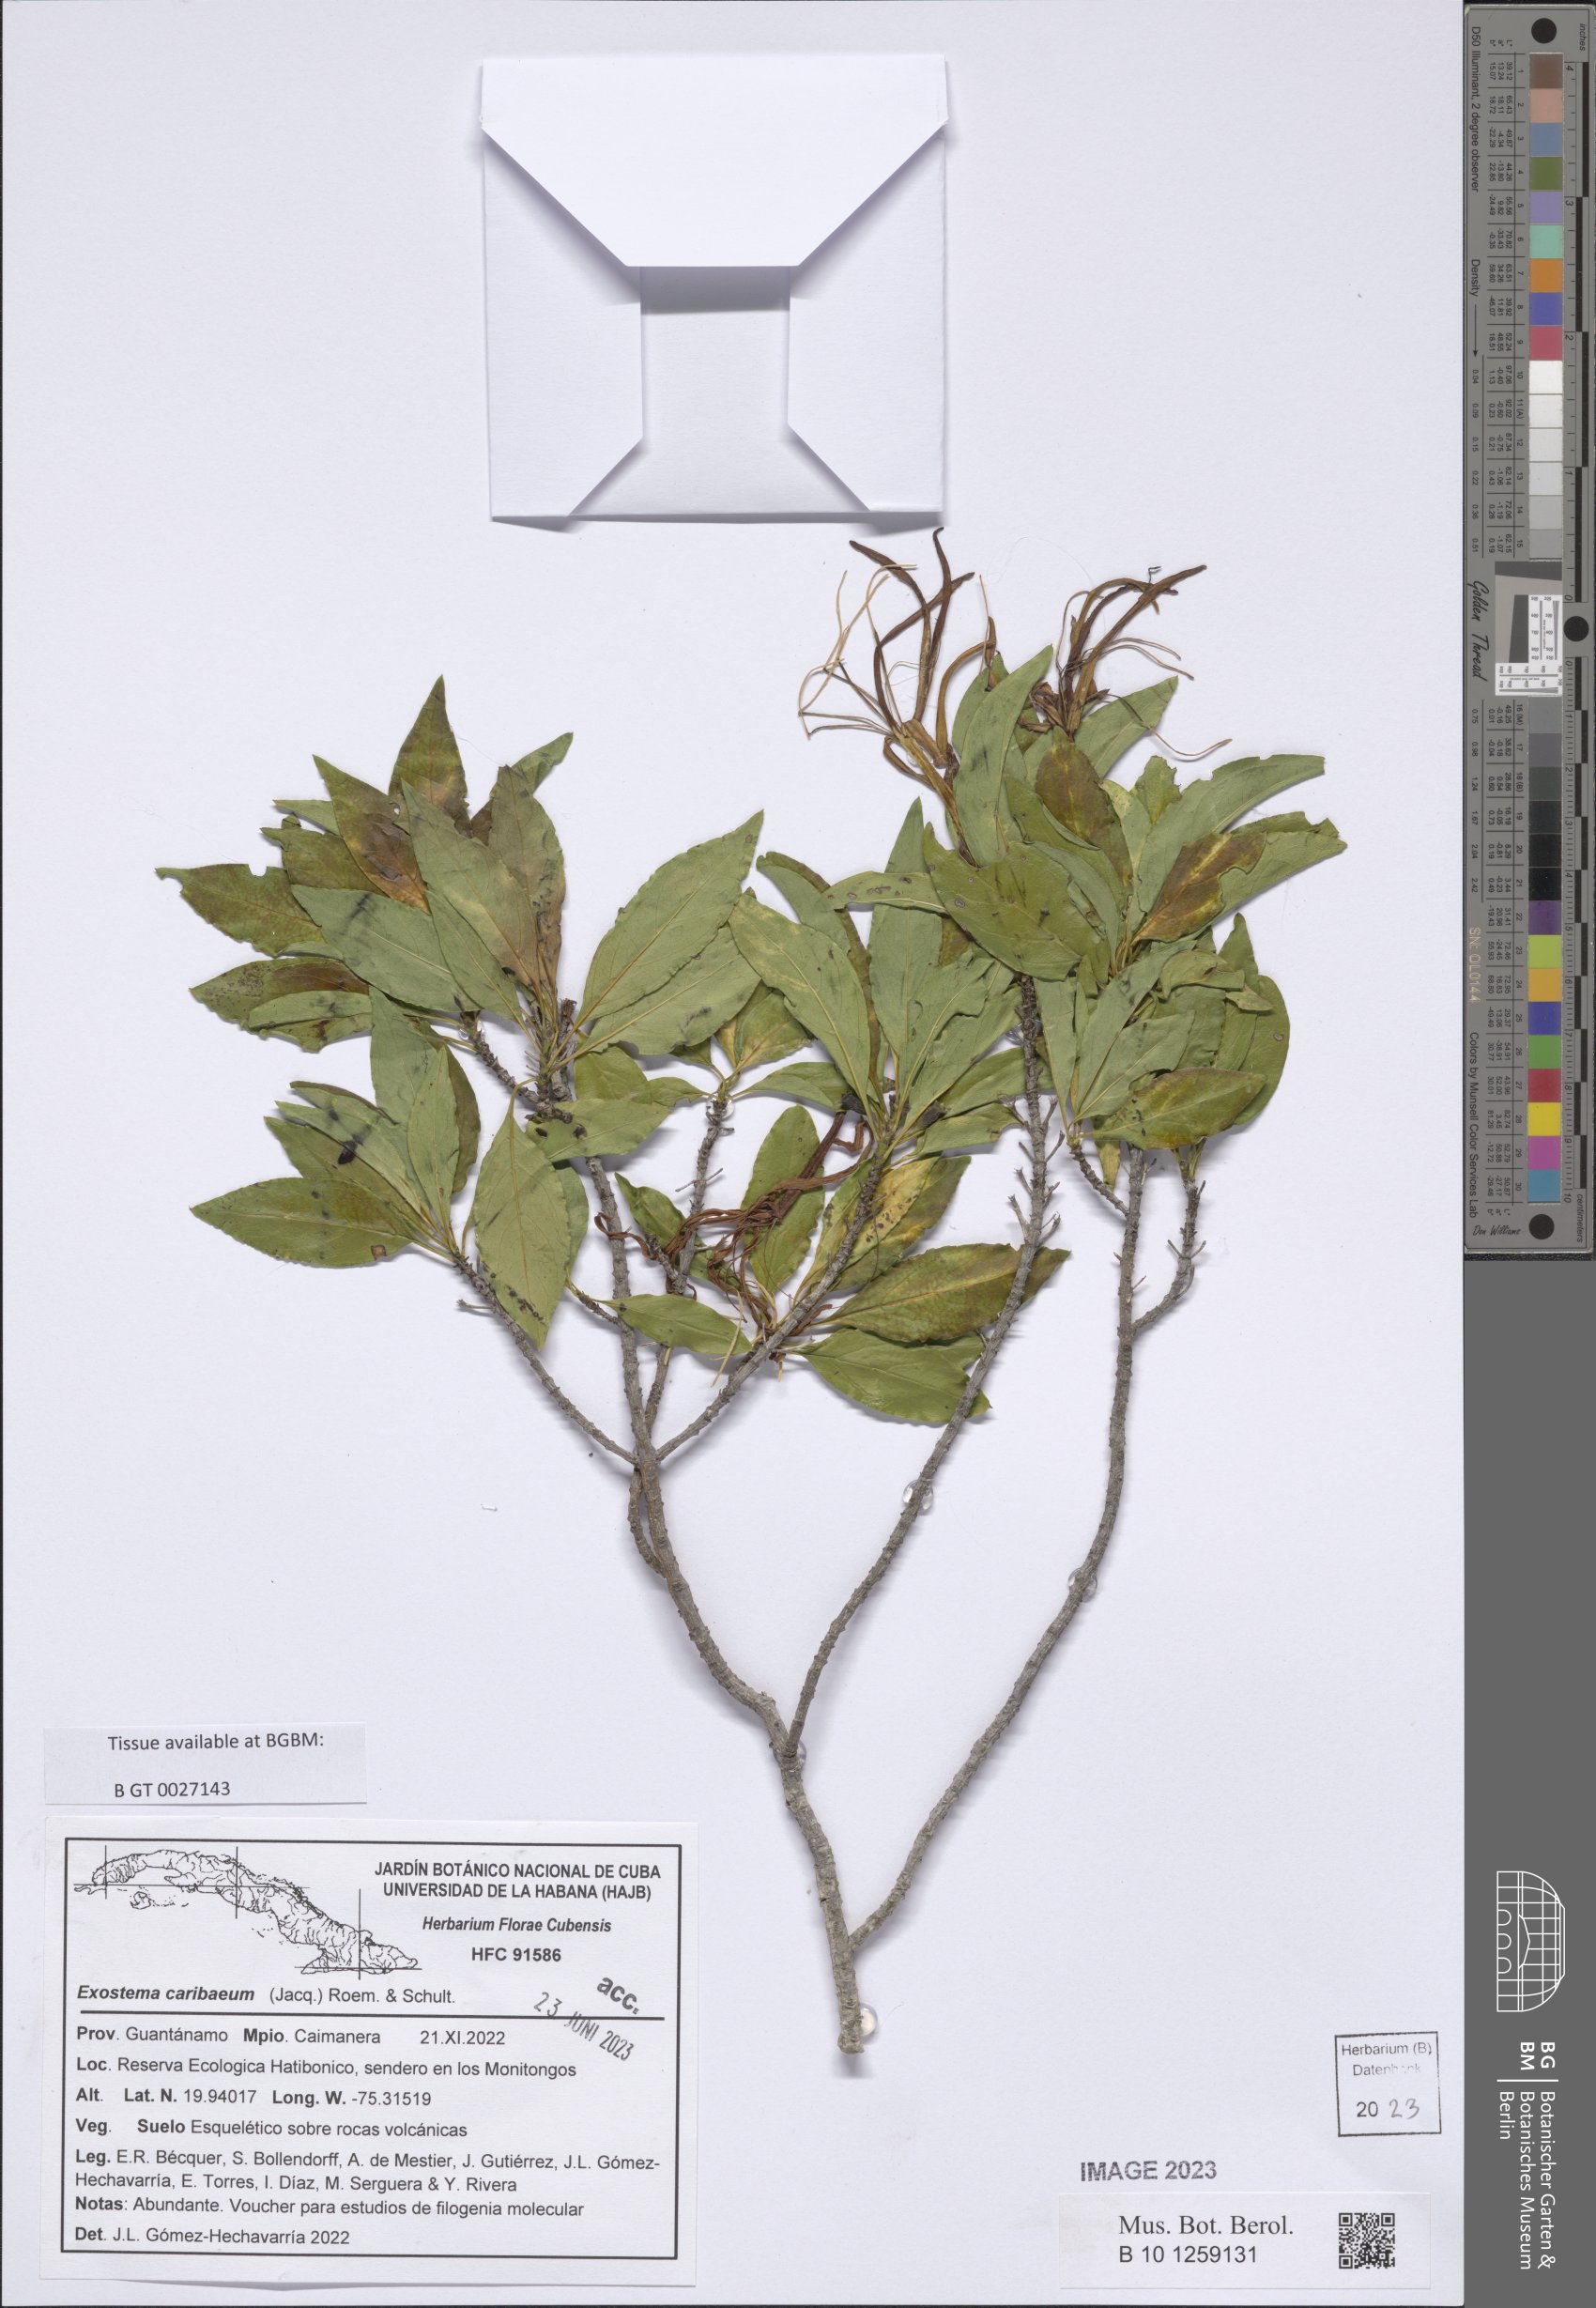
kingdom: Plantae
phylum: Tracheophyta
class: Magnoliopsida
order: Gentianales
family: Rubiaceae
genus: Exostema
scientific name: Exostema caribaeum
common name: Princewood
